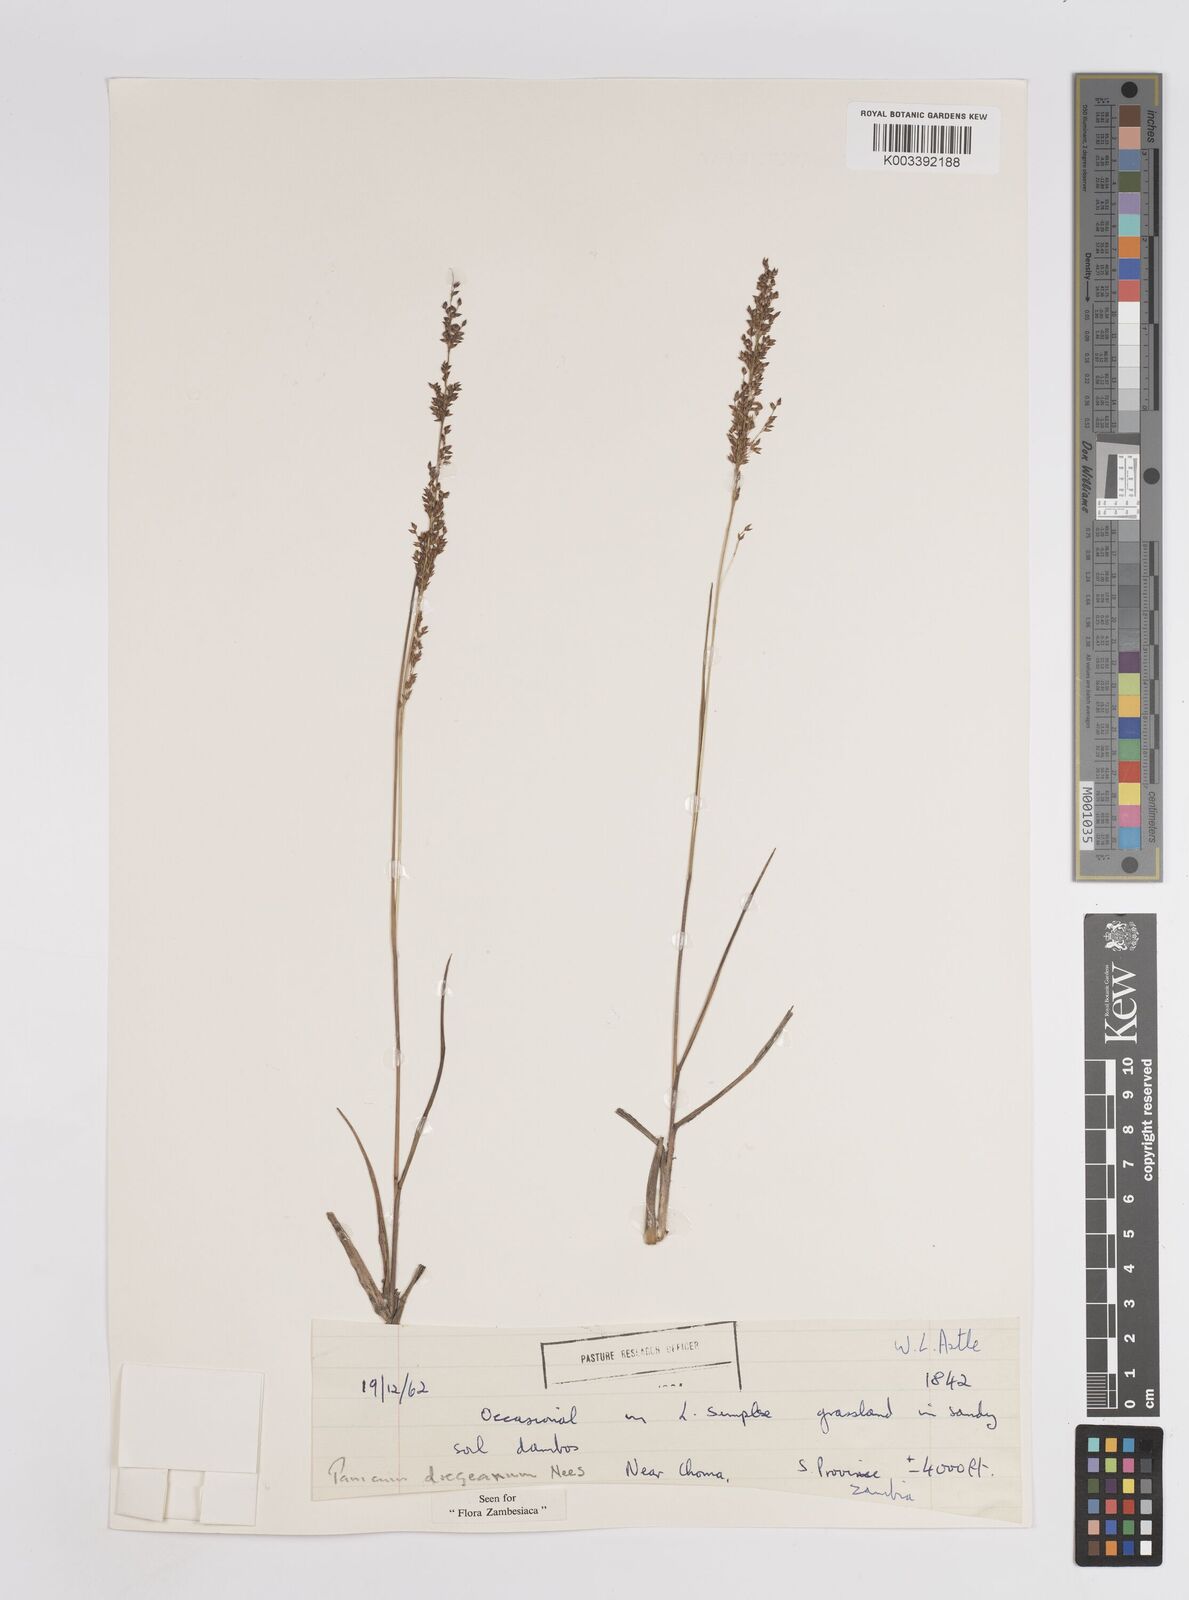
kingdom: Plantae
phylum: Tracheophyta
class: Liliopsida
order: Poales
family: Poaceae
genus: Panicum
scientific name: Panicum dregeanum
